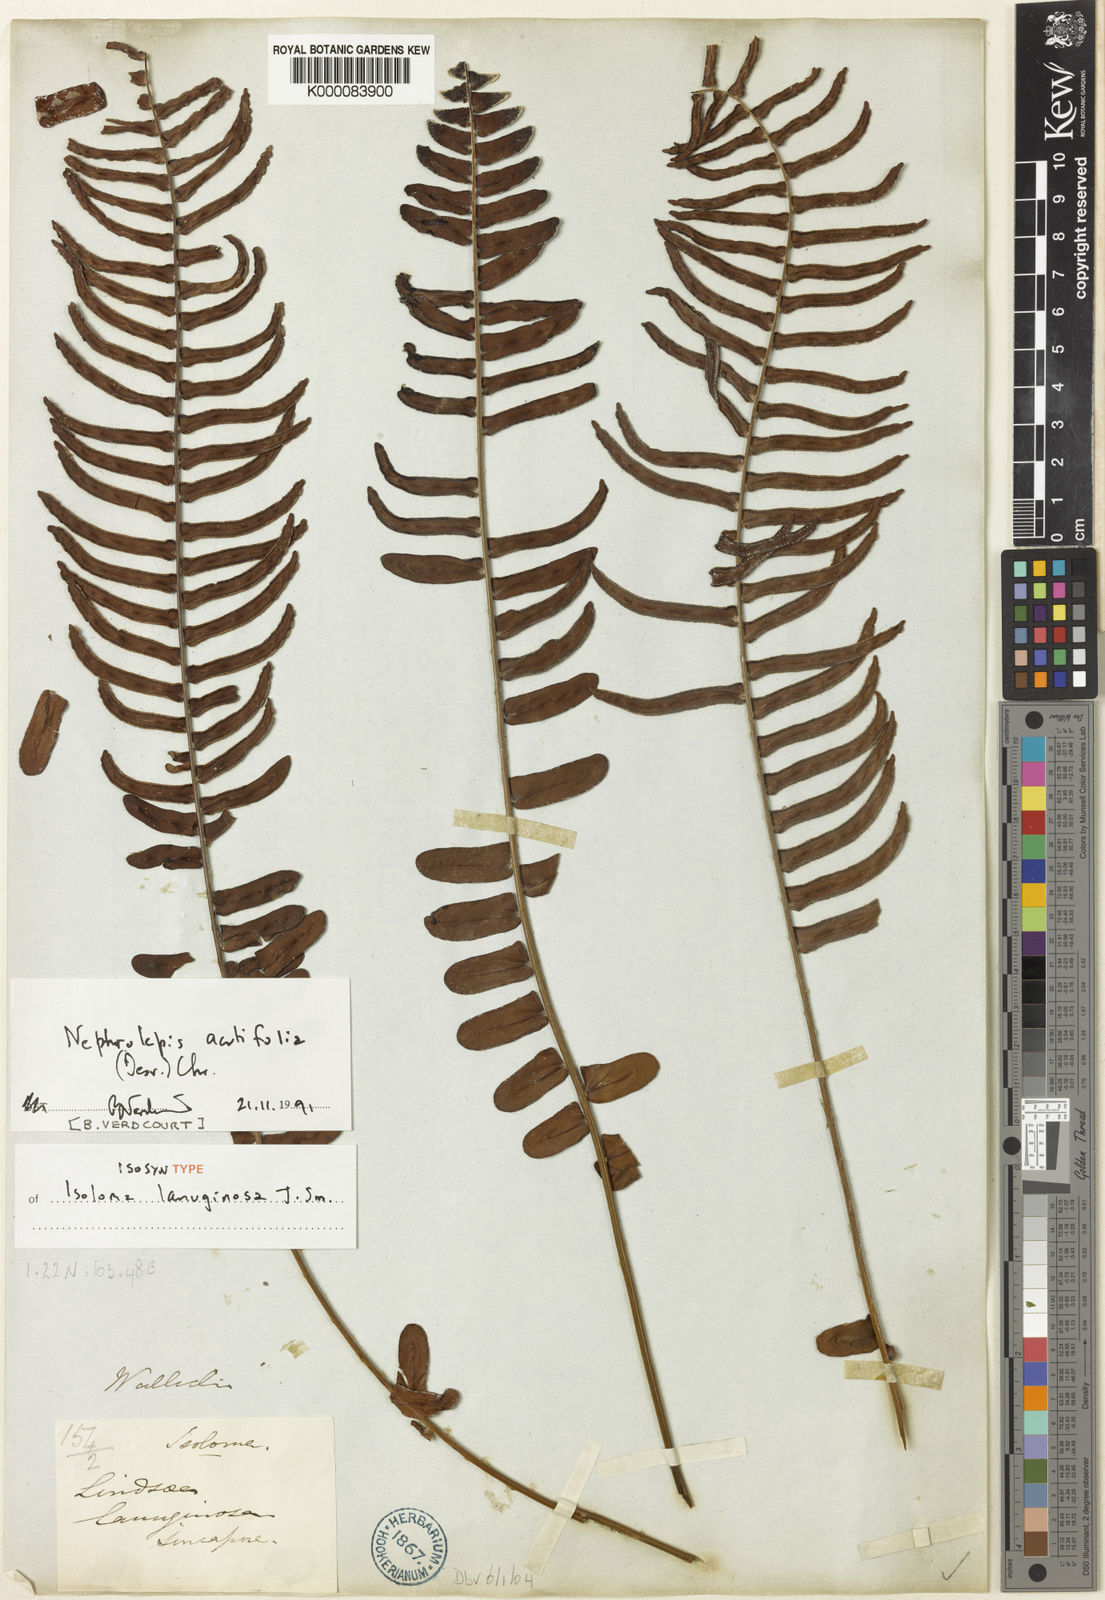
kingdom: Plantae
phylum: Tracheophyta
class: Polypodiopsida
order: Polypodiales
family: Nephrolepidaceae
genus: Nephrolepis
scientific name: Nephrolepis acutifolia
